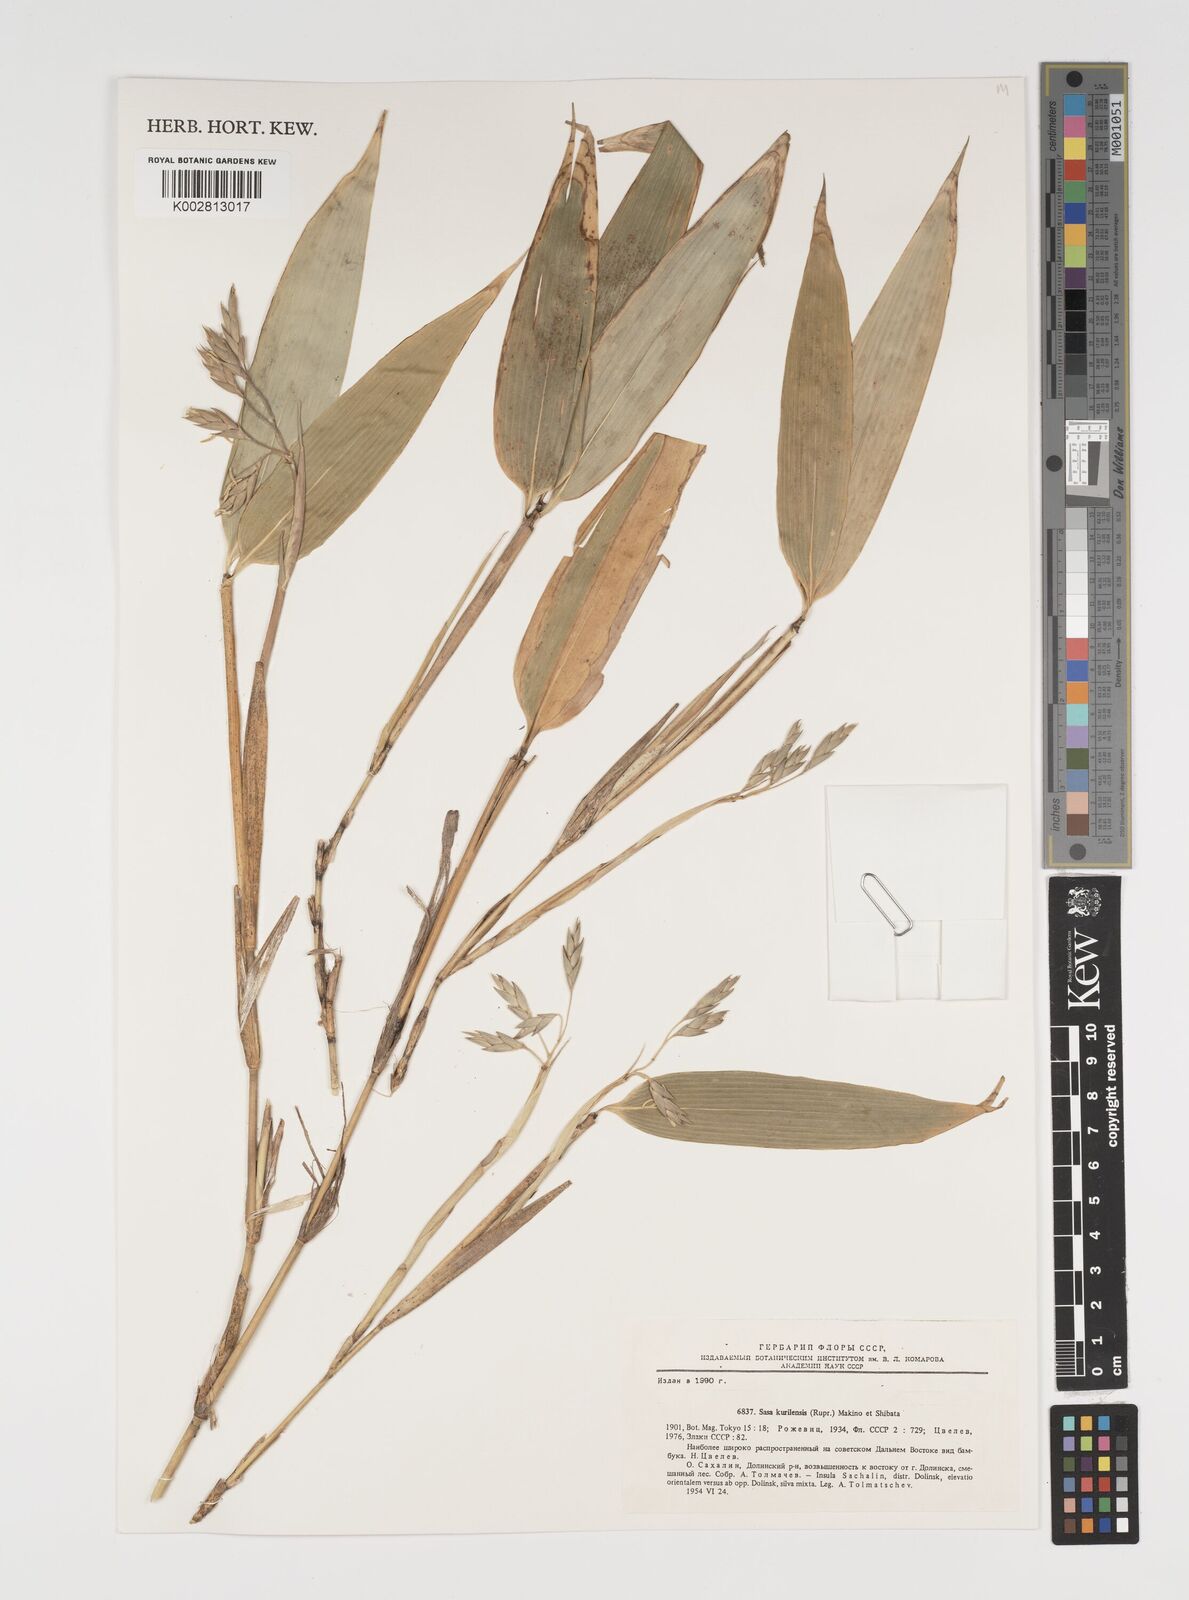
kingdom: Plantae
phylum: Tracheophyta
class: Liliopsida
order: Poales
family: Poaceae
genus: Sasa
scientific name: Sasa kurilensis
